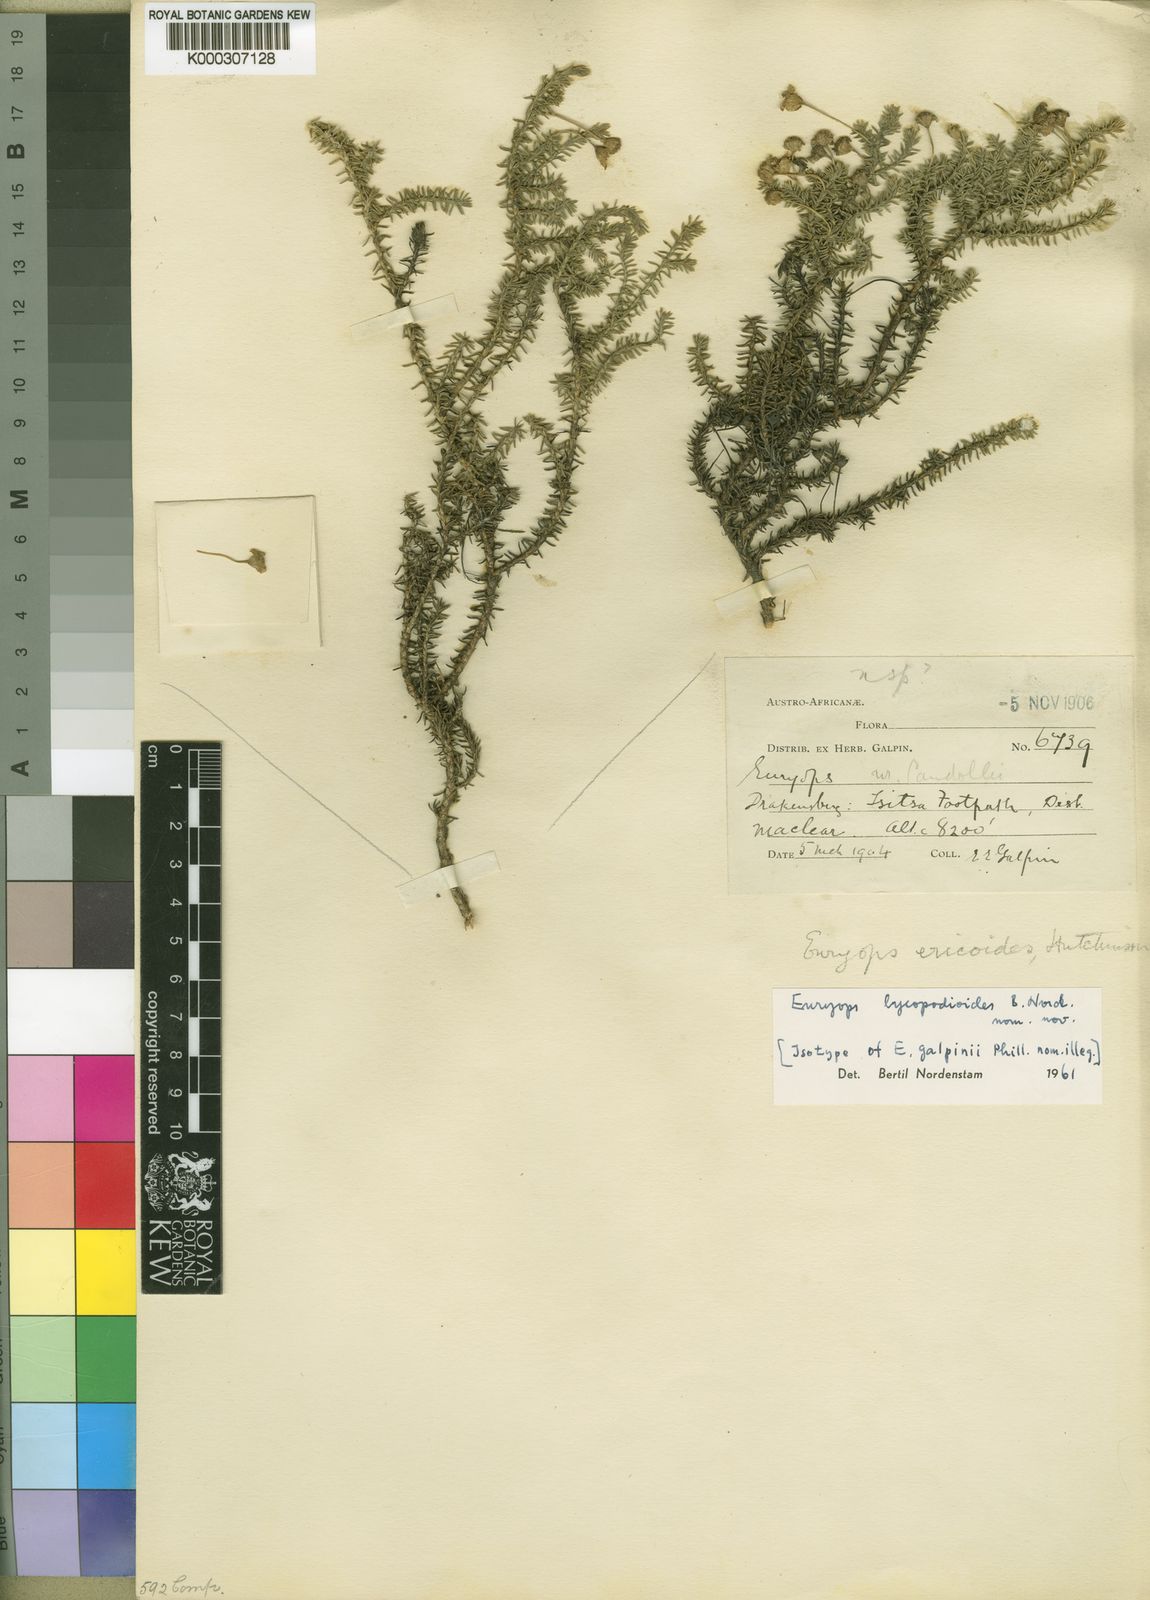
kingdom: Plantae
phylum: Tracheophyta
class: Magnoliopsida
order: Asterales
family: Asteraceae
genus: Euryops
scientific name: Euryops candollei
